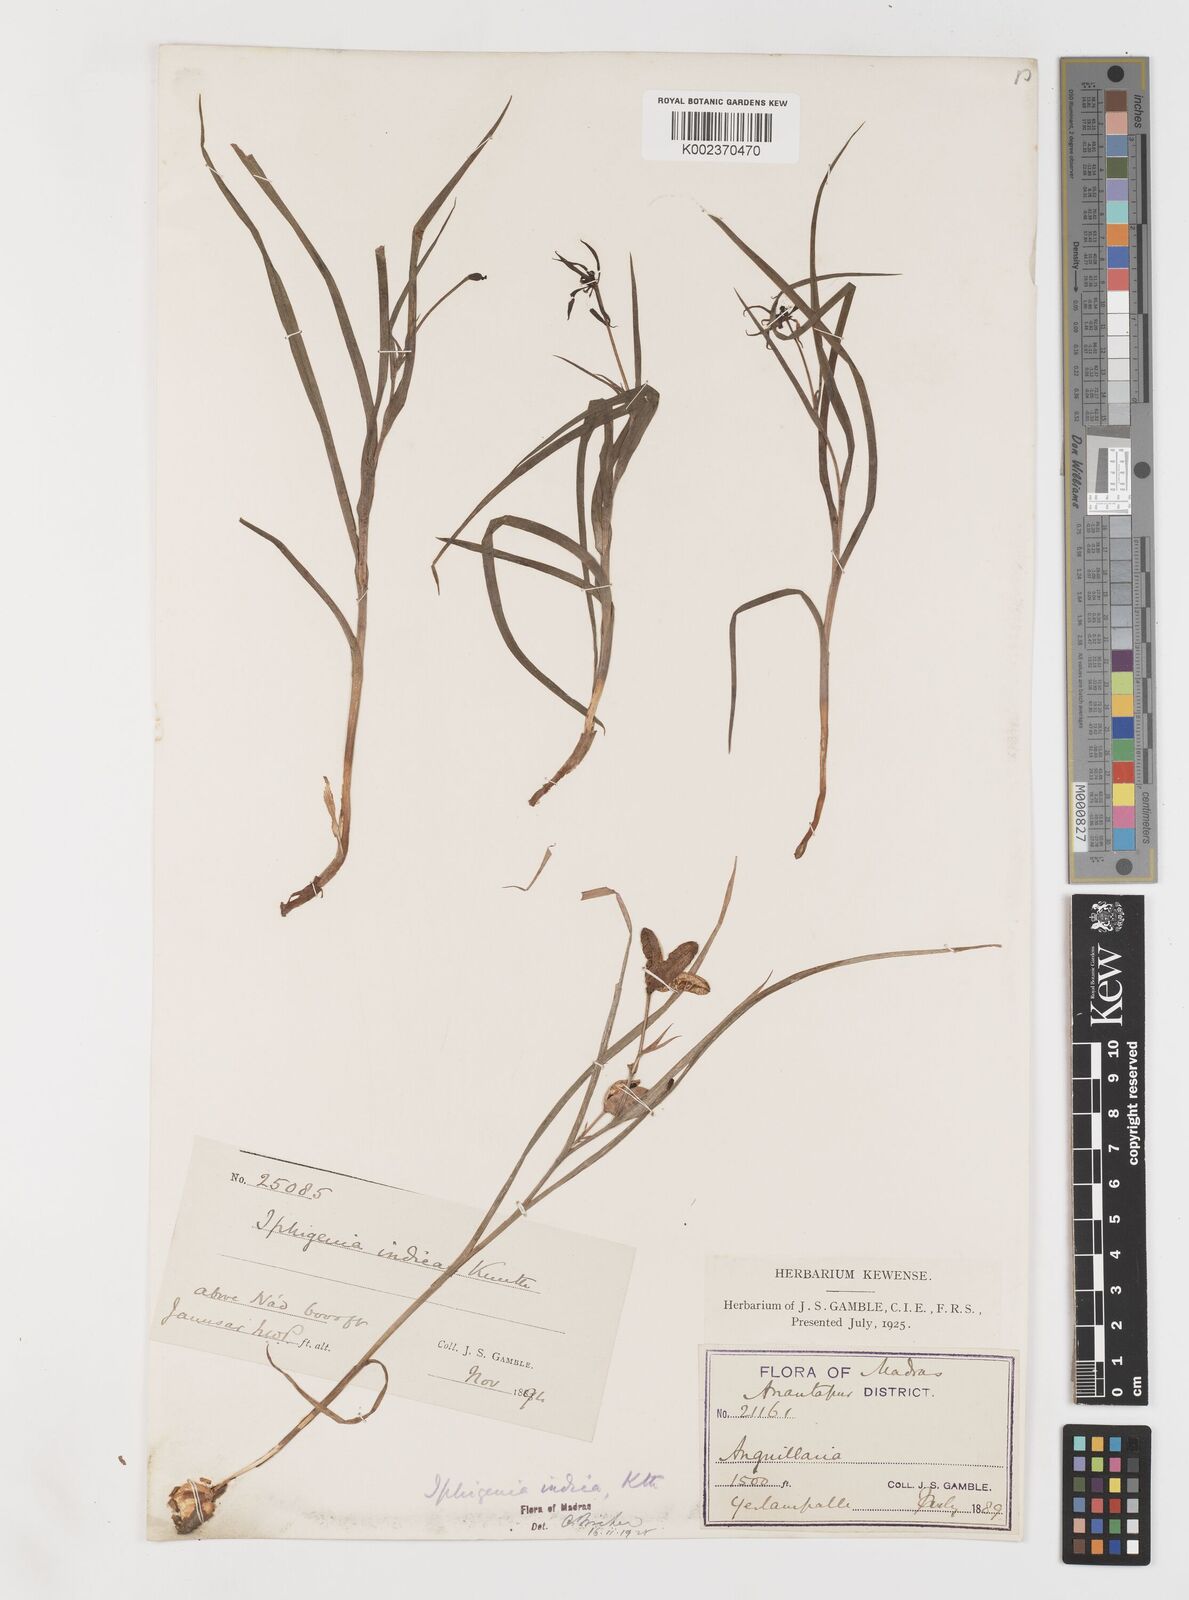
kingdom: Plantae
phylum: Tracheophyta
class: Liliopsida
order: Liliales
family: Colchicaceae
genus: Iphigenia
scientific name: Iphigenia indica
